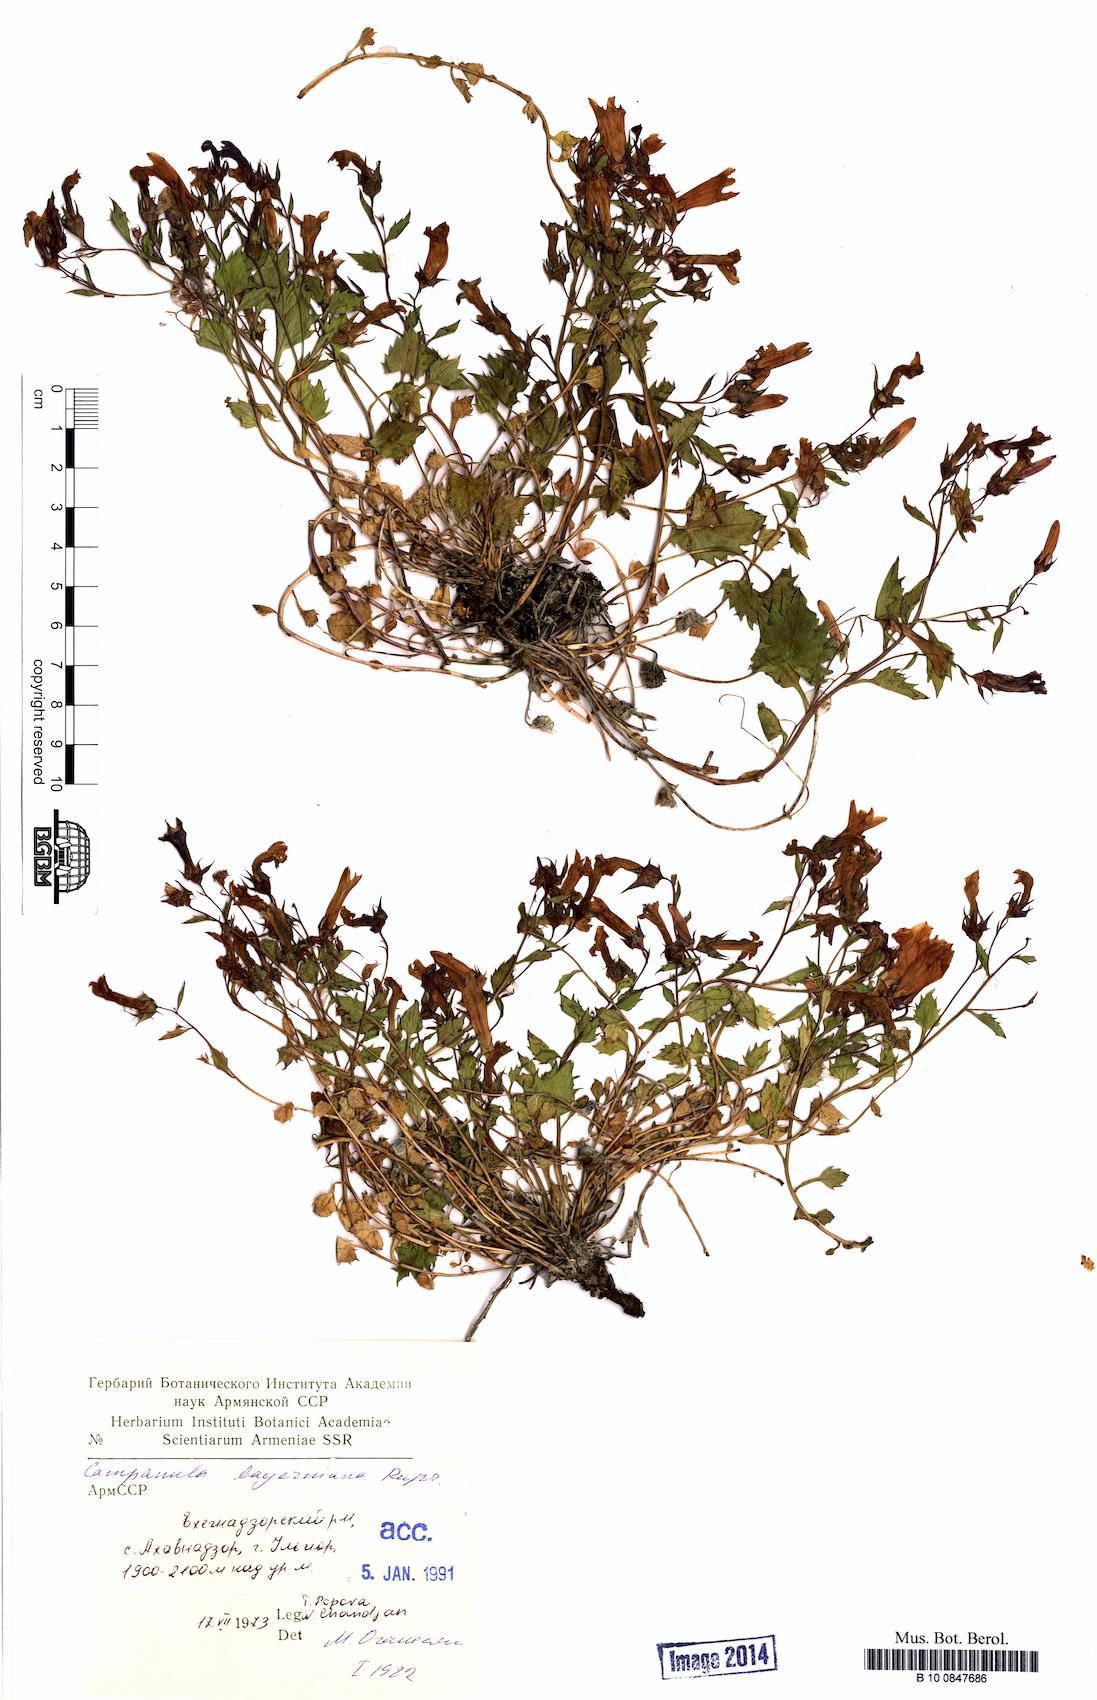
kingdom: Plantae
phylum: Tracheophyta
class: Magnoliopsida
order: Asterales
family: Campanulaceae
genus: Campanula
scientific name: Campanula bayerniana
